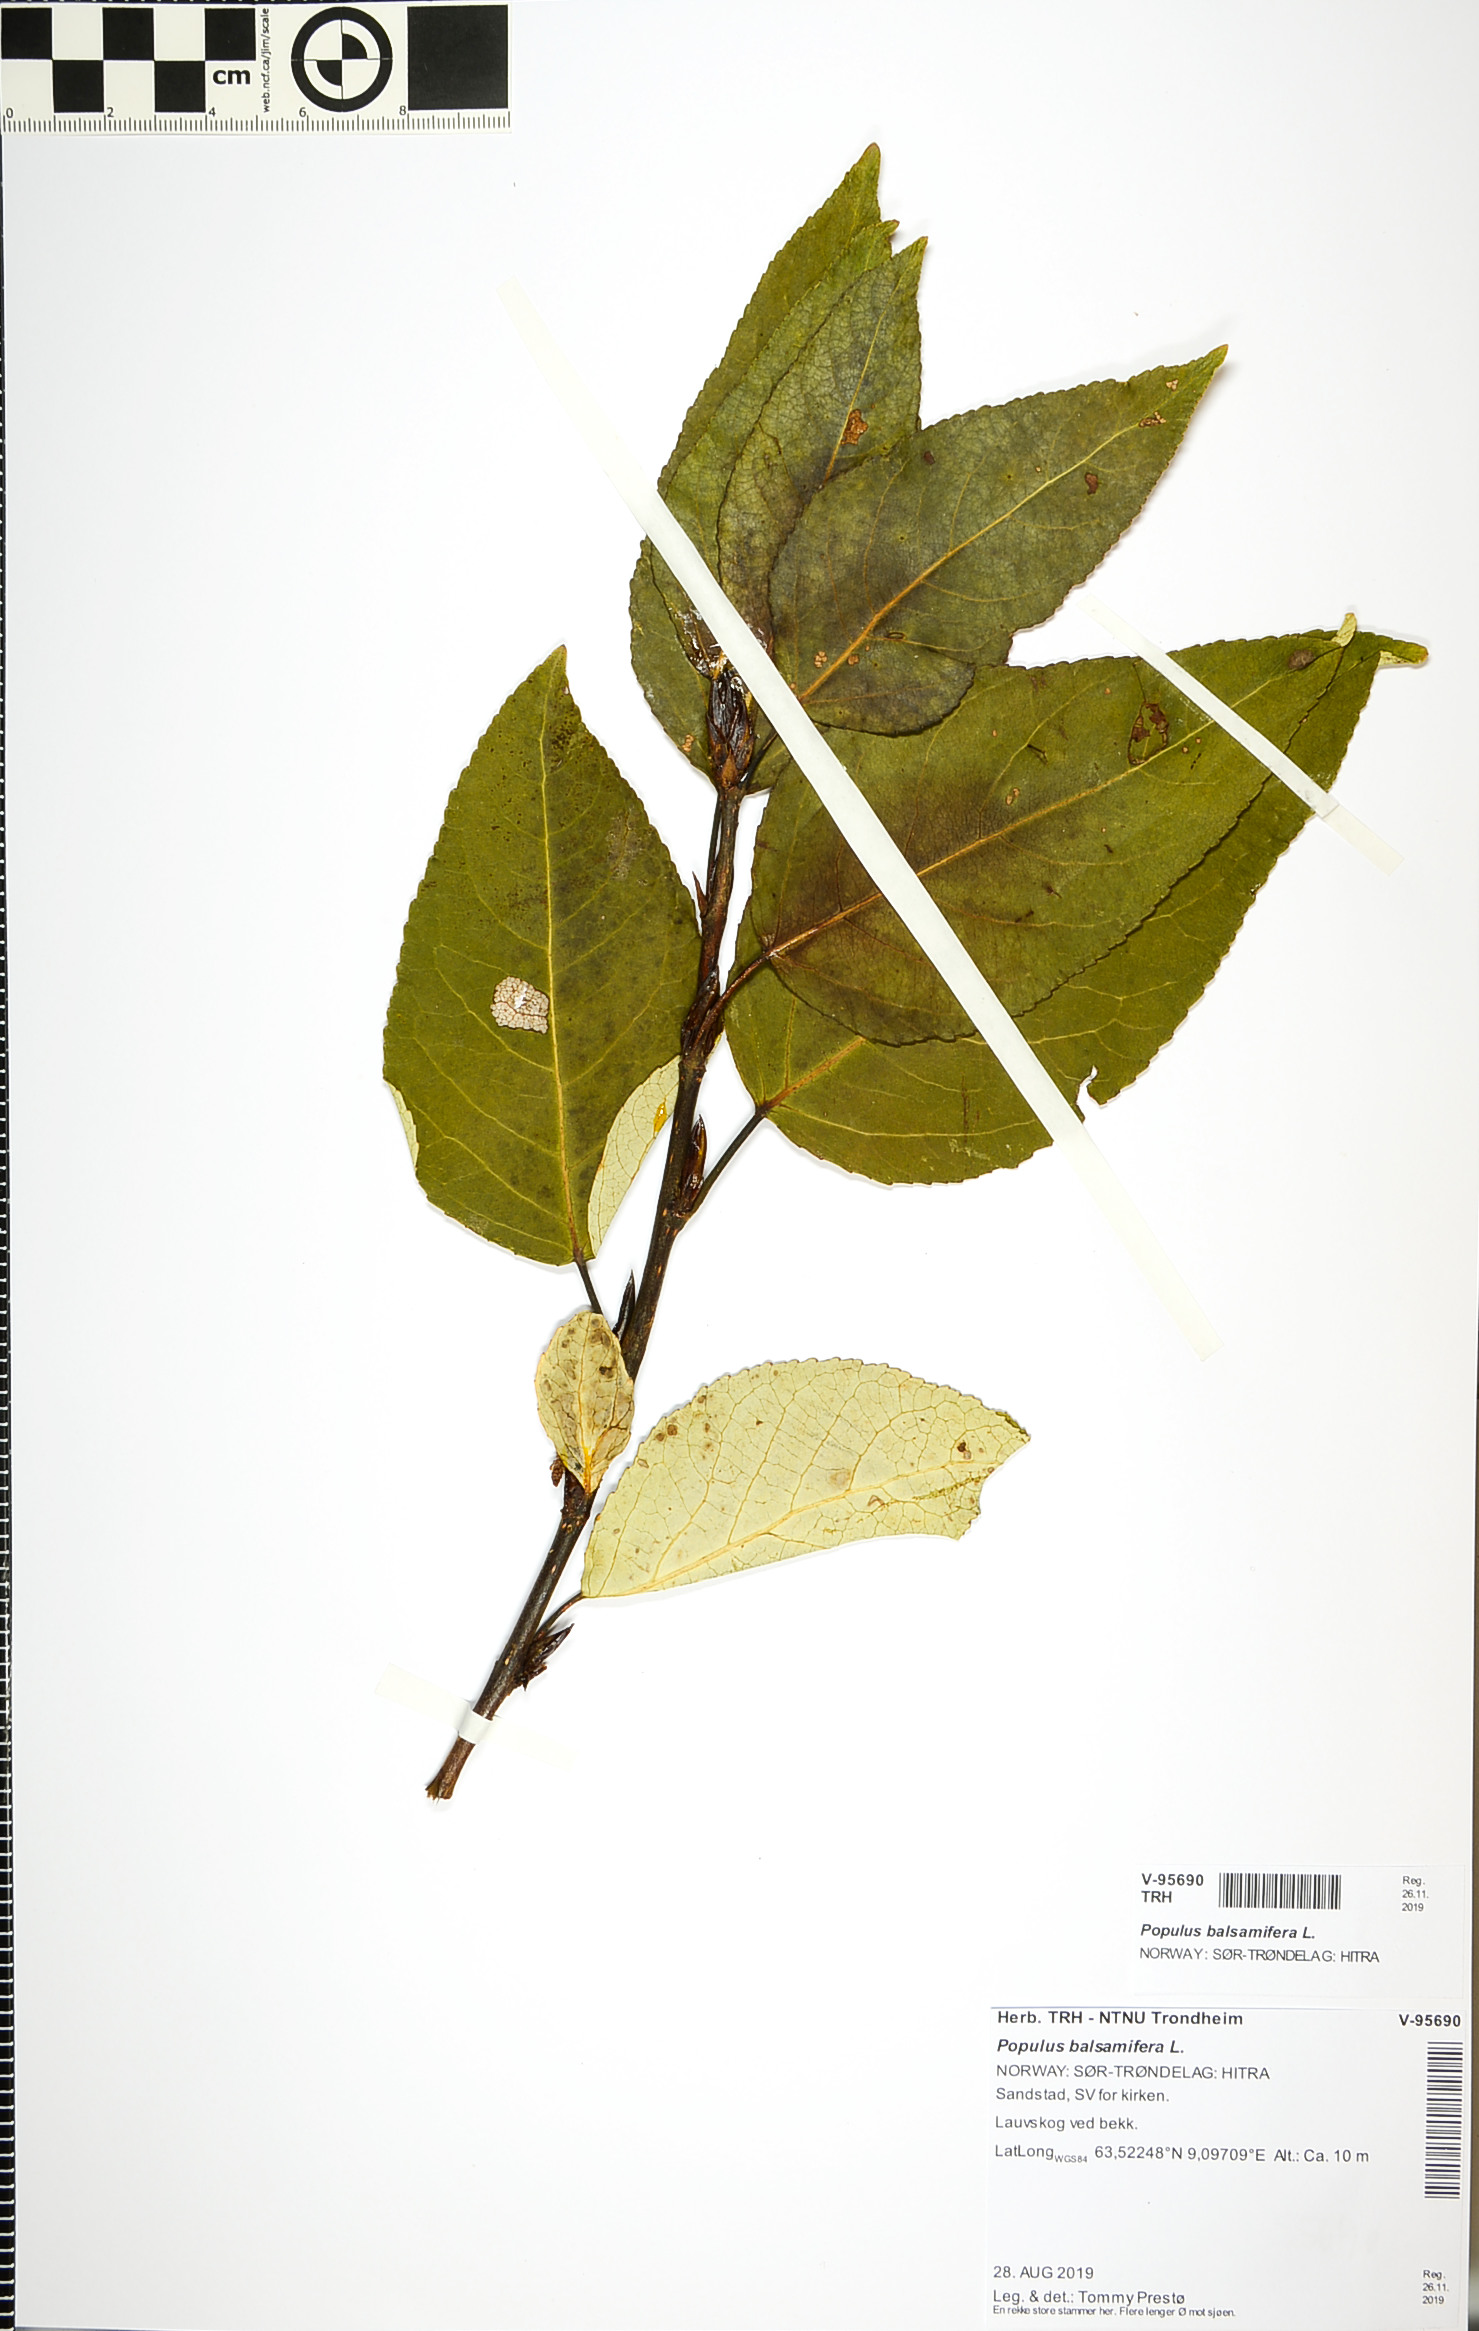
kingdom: Plantae
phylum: Tracheophyta
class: Magnoliopsida
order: Malpighiales
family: Salicaceae
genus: Populus
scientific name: Populus balsamifera
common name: Balsam poplar
